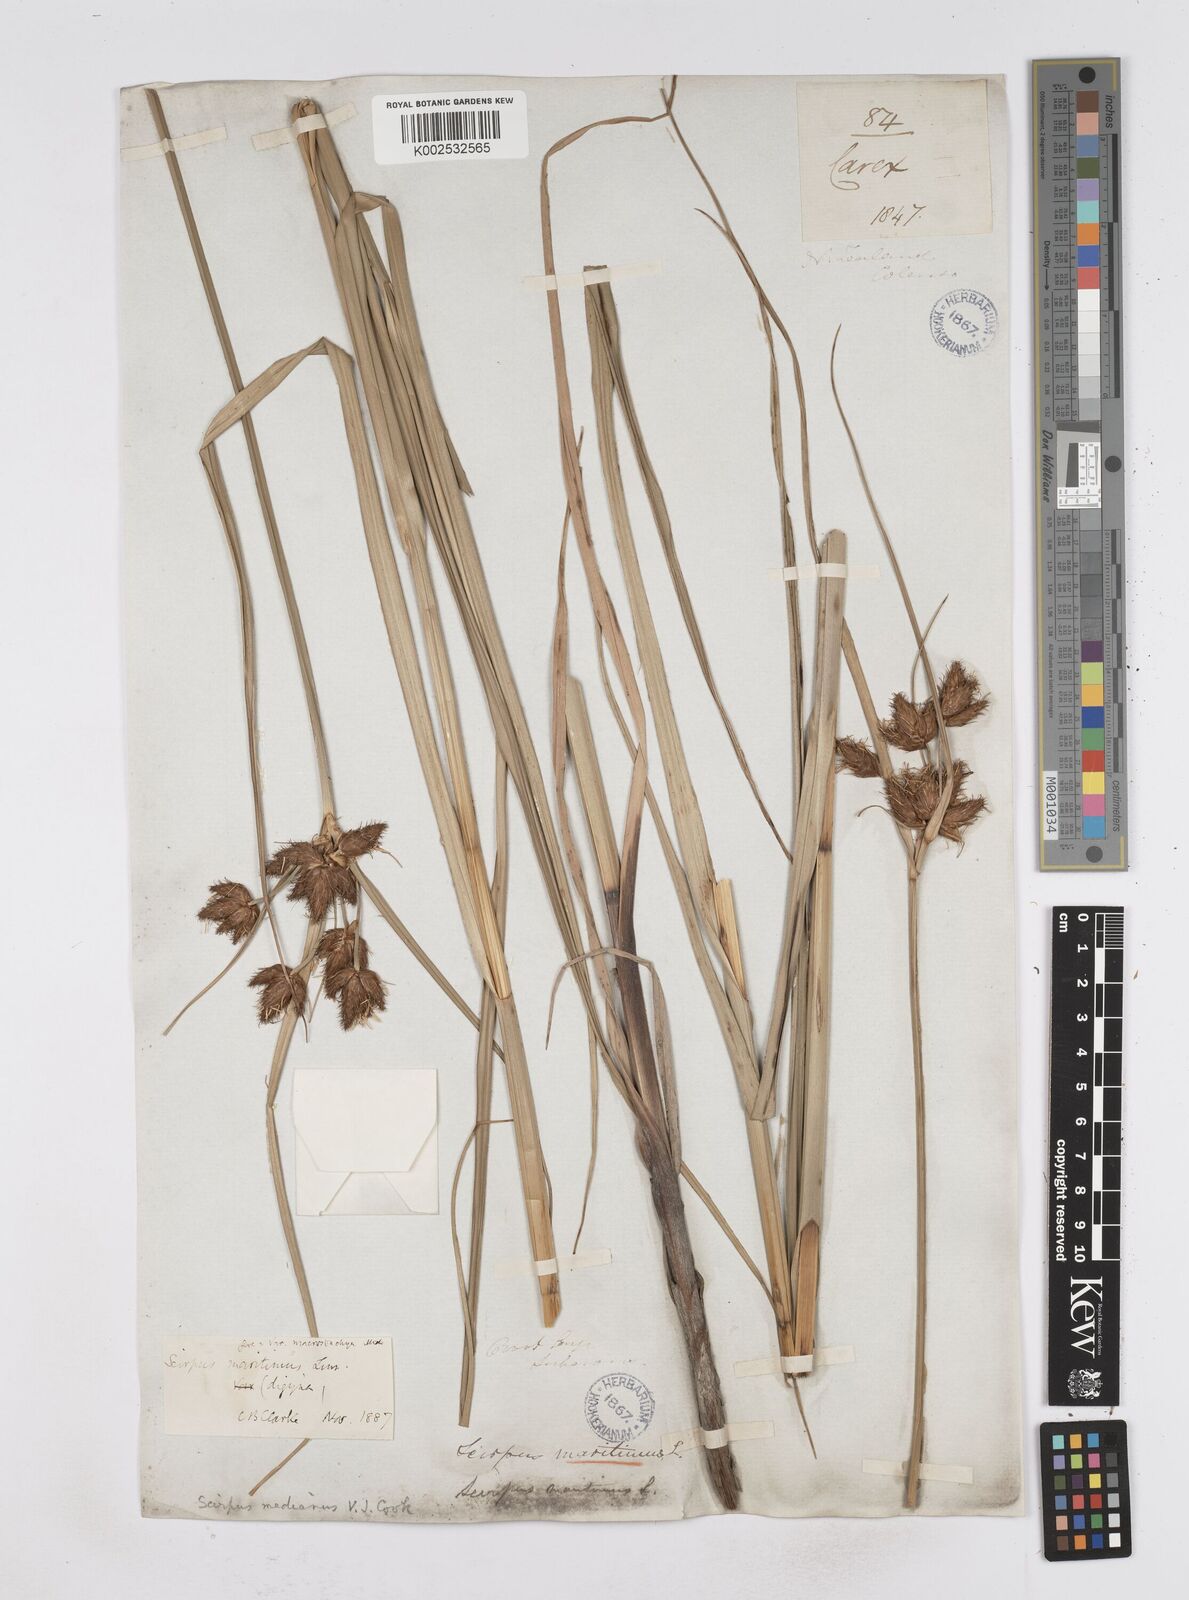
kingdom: Plantae
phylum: Tracheophyta
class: Liliopsida
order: Poales
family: Cyperaceae
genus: Bolboschoenus
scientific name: Bolboschoenus medianus
